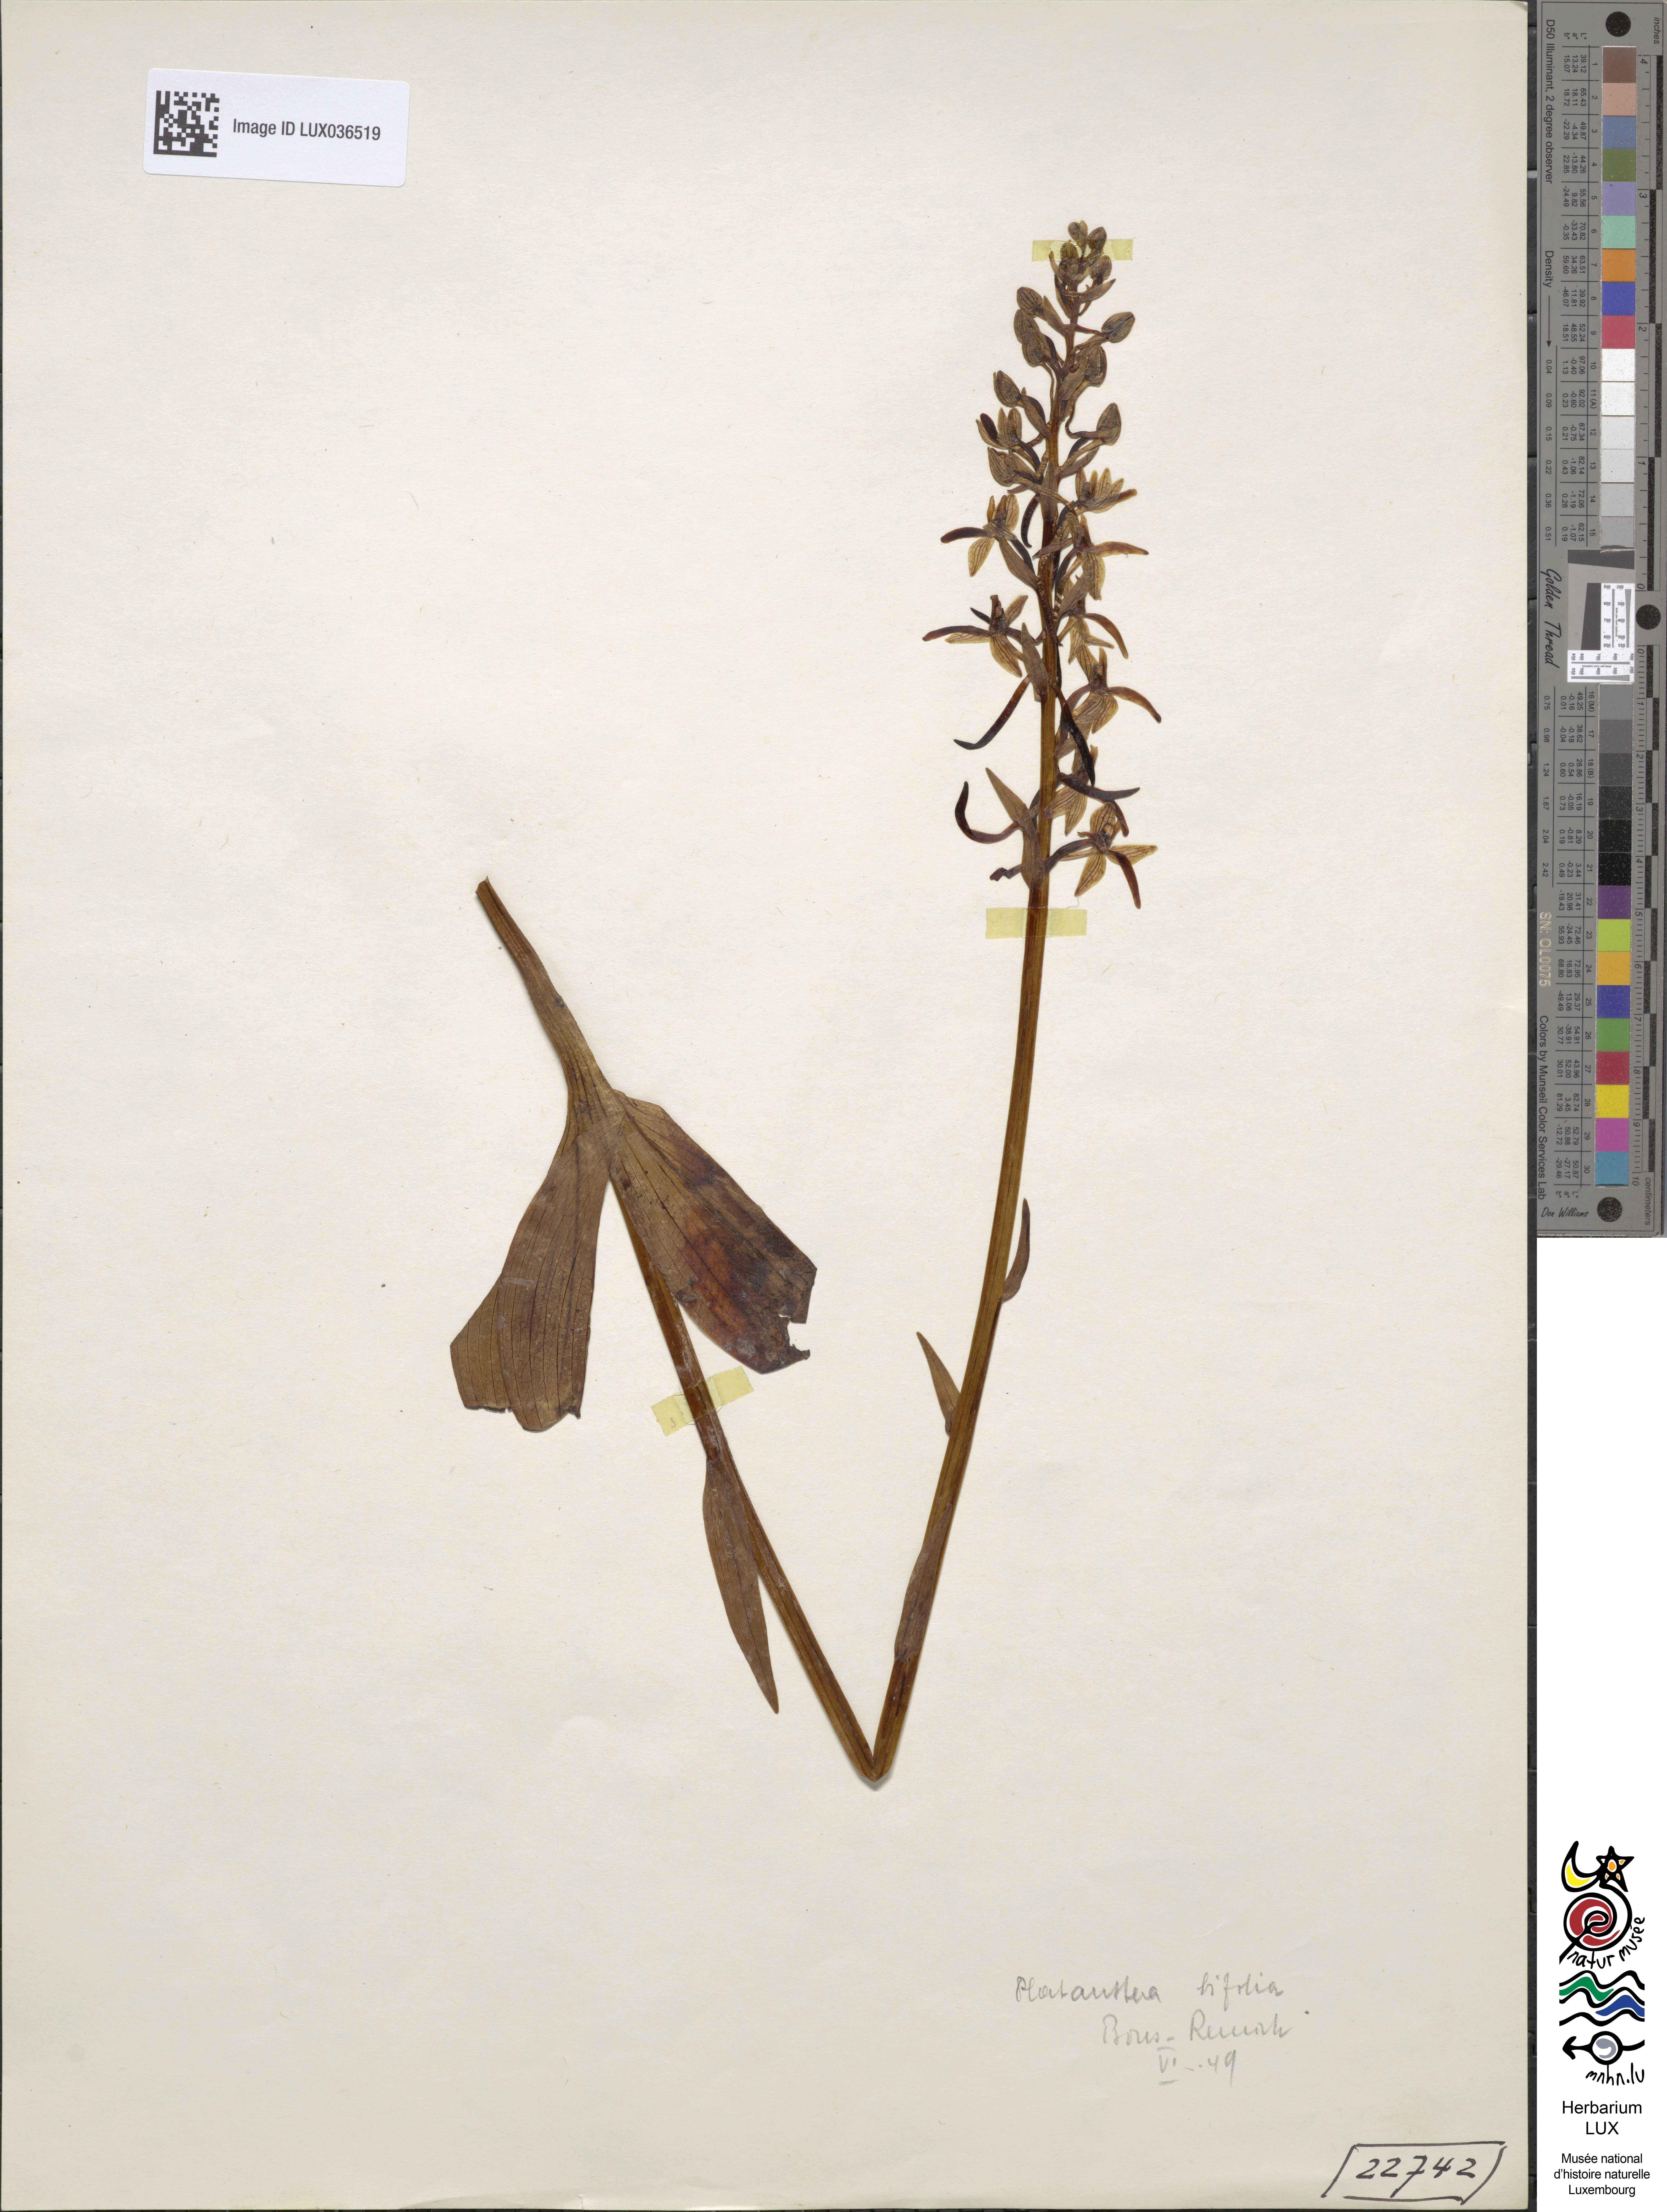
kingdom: Plantae
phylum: Tracheophyta
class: Liliopsida
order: Asparagales
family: Orchidaceae
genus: Platanthera
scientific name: Platanthera bifolia
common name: Lesser butterfly-orchid
